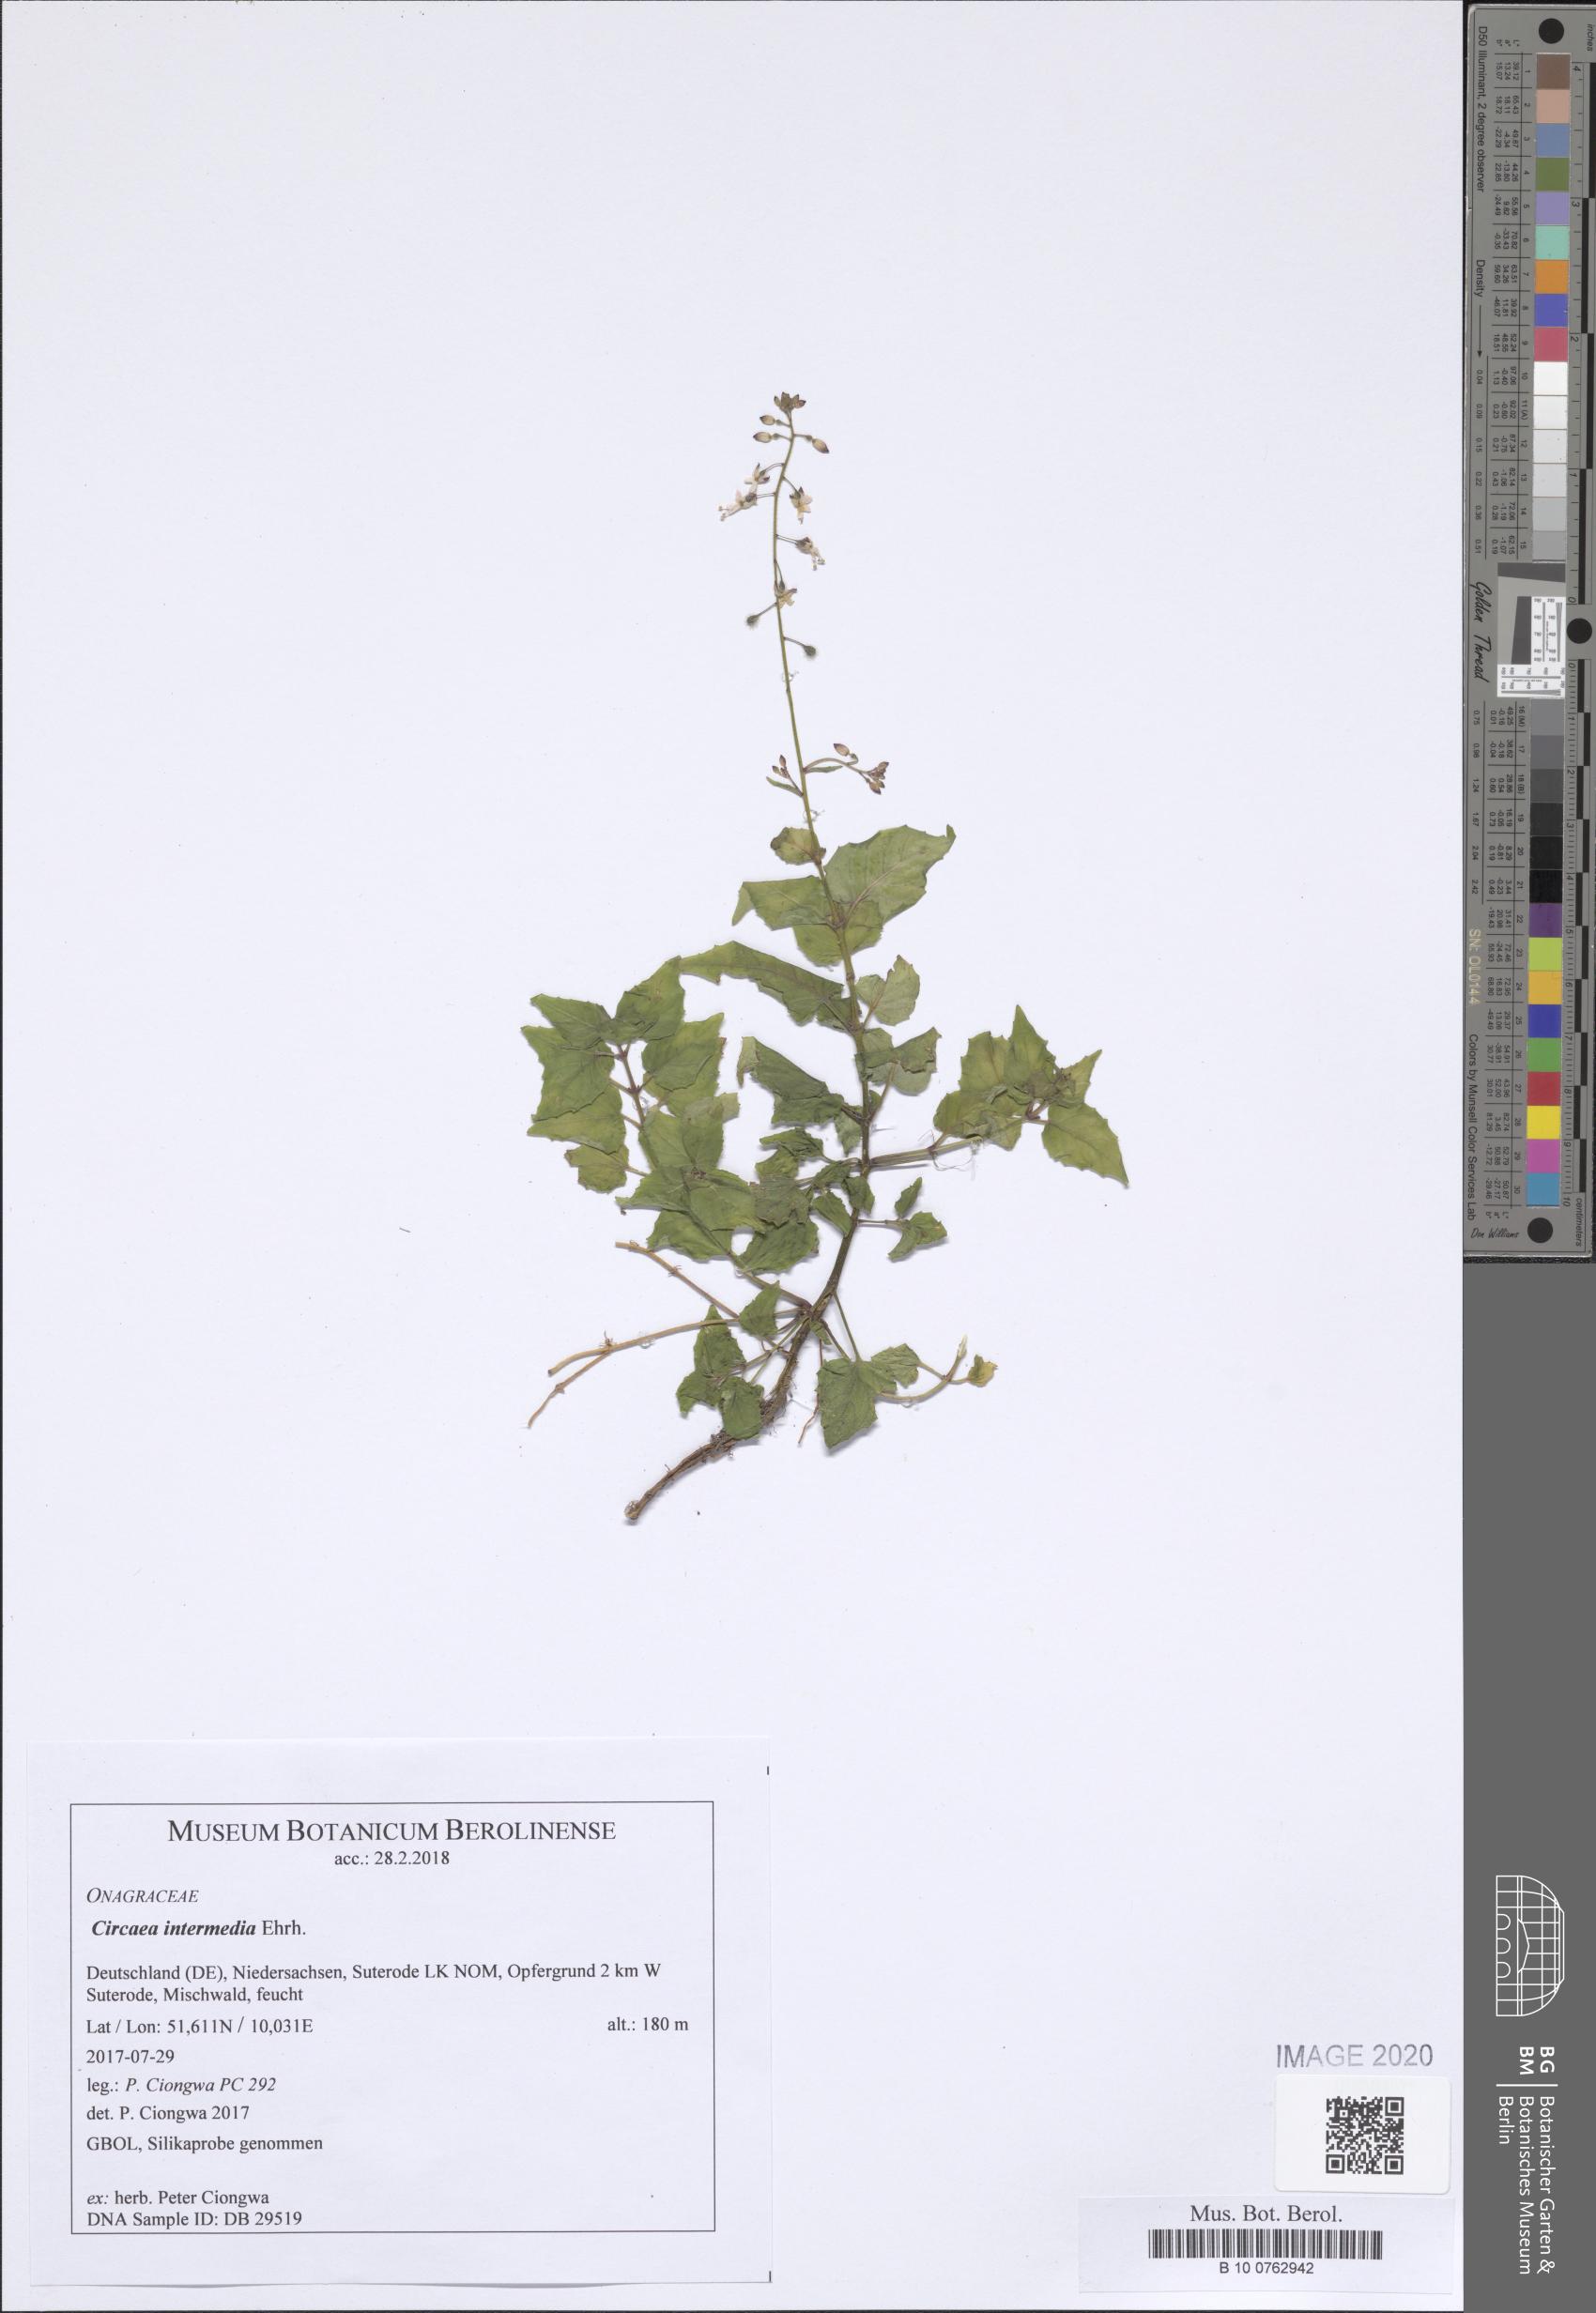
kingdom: Plantae
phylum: Tracheophyta
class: Magnoliopsida
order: Myrtales
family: Onagraceae
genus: Circaea
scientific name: Circaea intermedia
